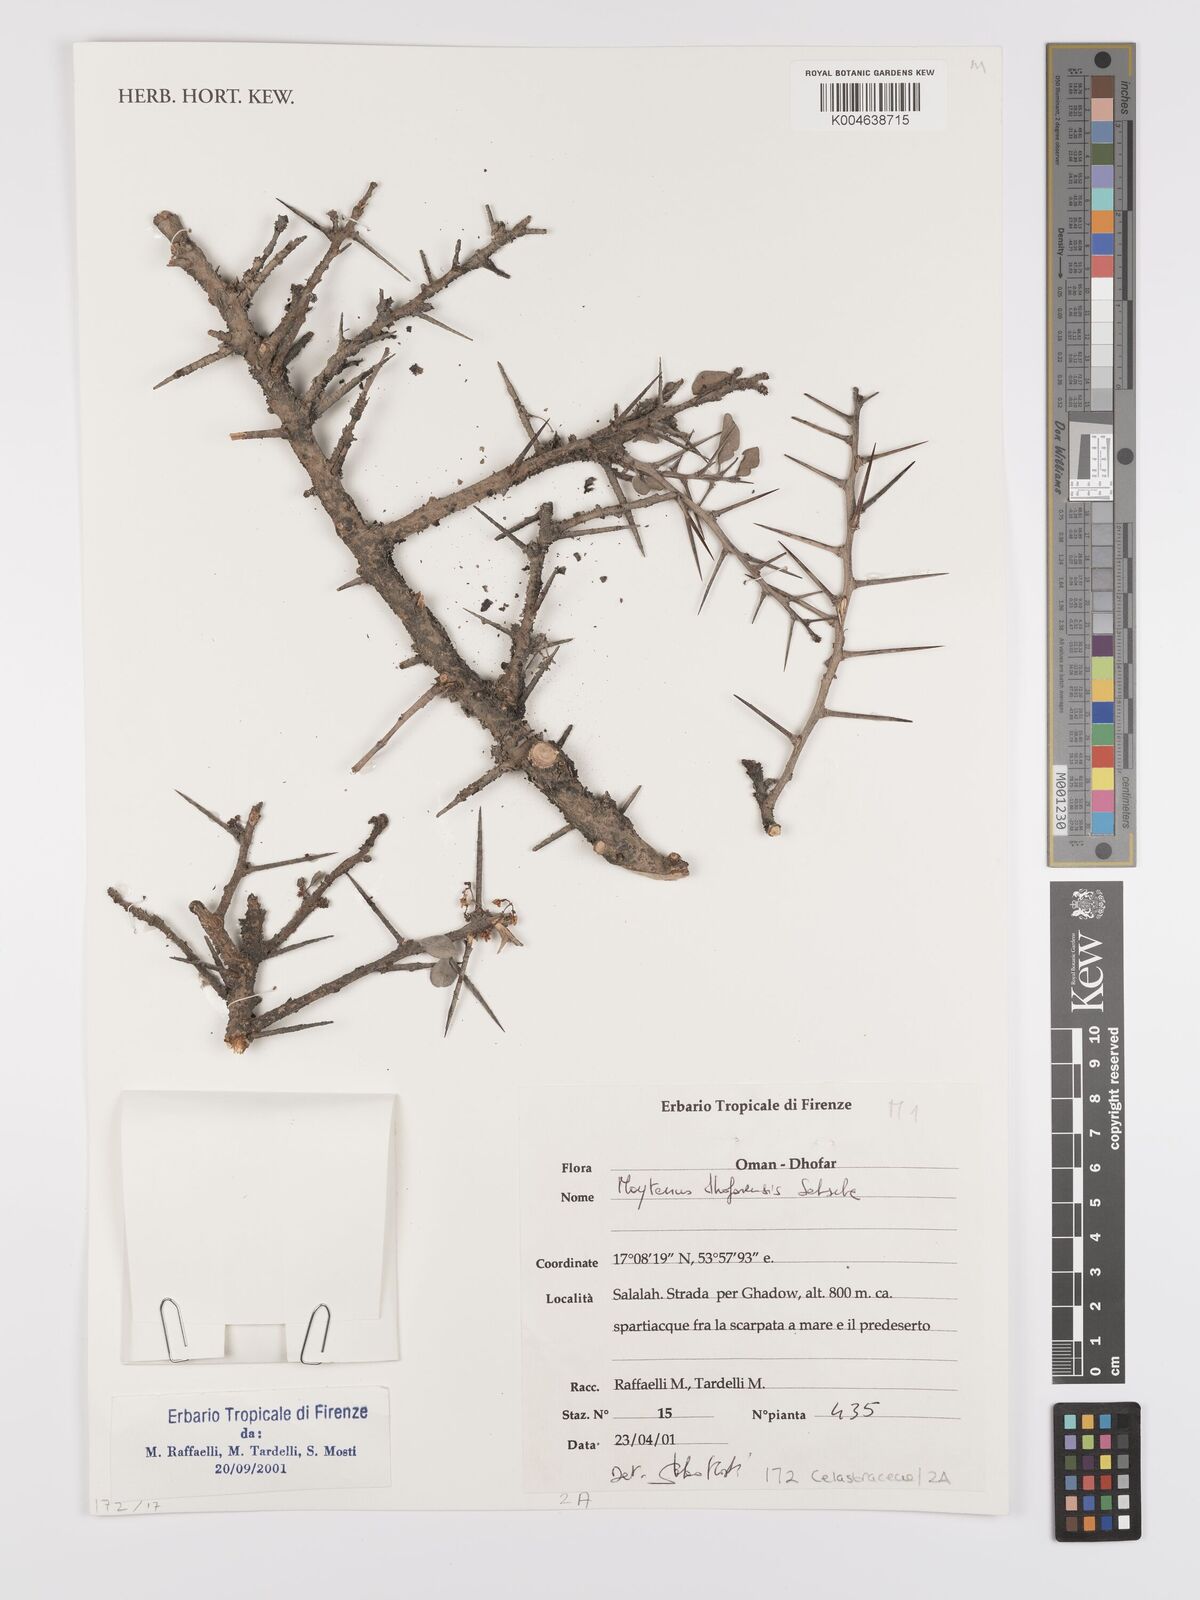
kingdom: Plantae
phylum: Tracheophyta
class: Magnoliopsida
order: Celastrales
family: Celastraceae
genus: Gymnosporia
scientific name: Gymnosporia dhofarensis
